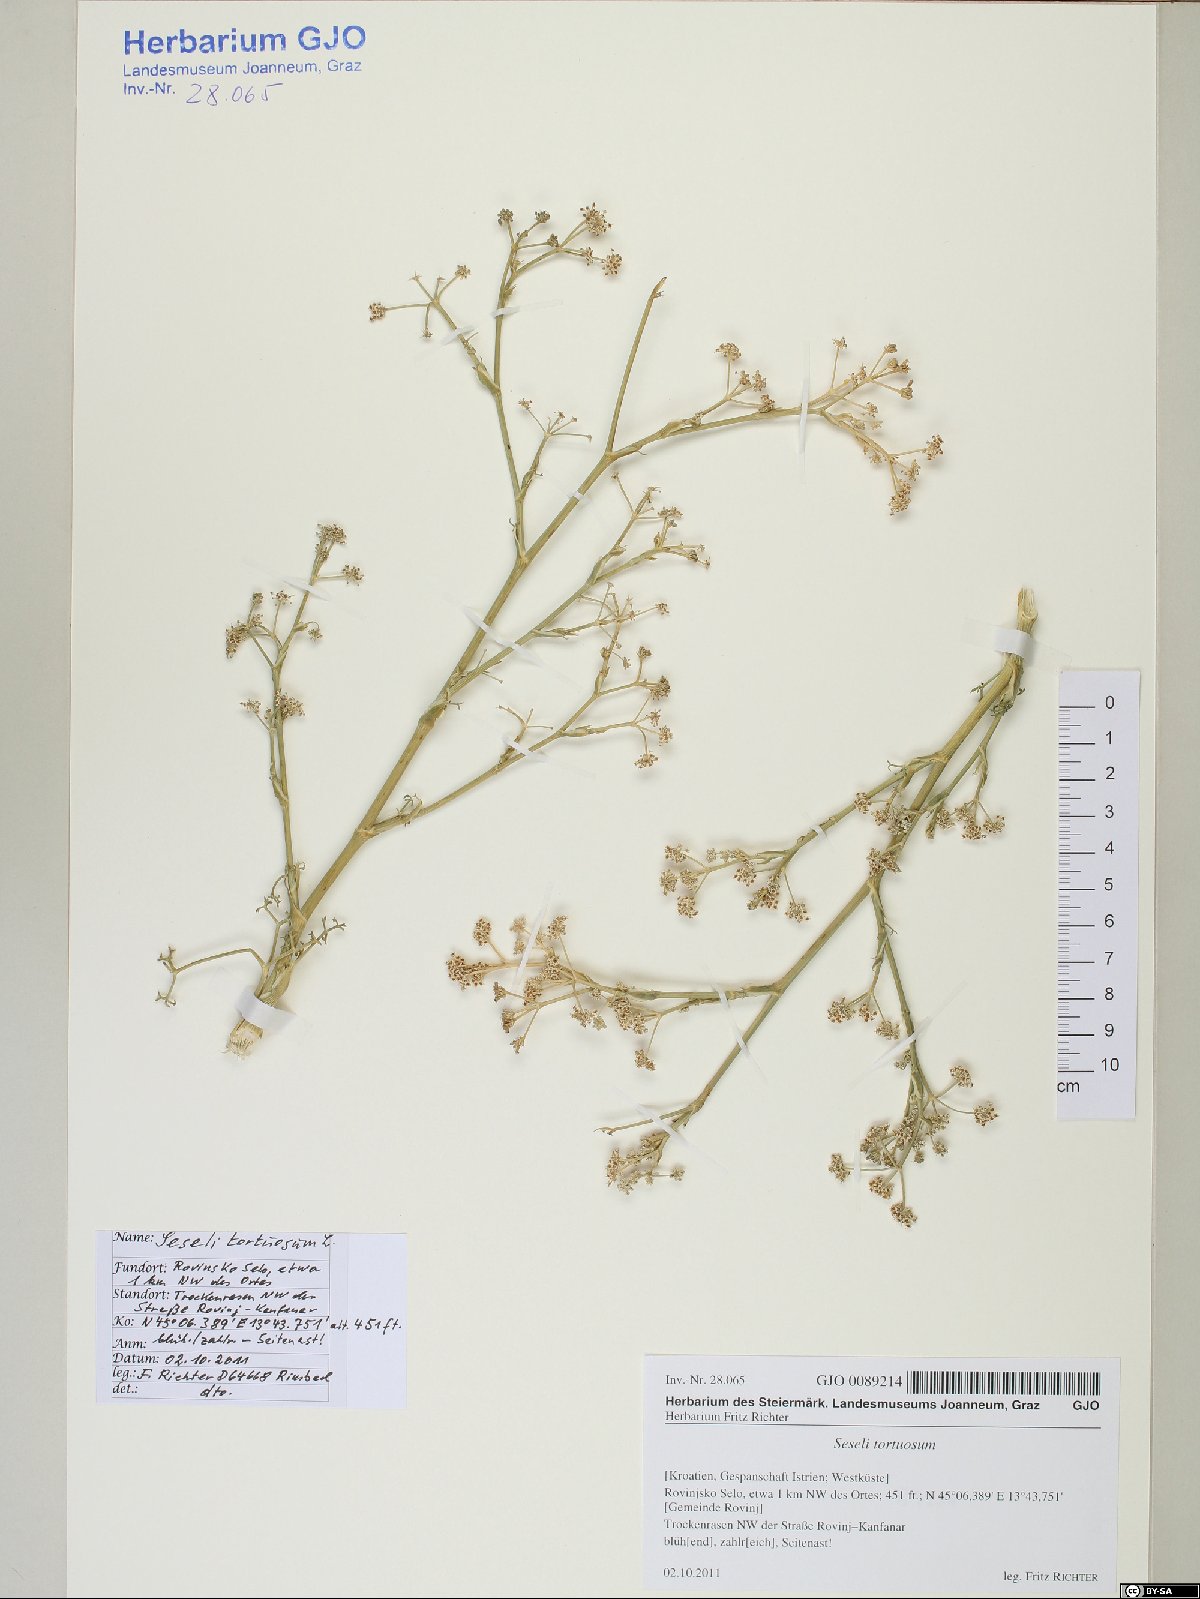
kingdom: Plantae
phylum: Tracheophyta
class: Magnoliopsida
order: Apiales
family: Apiaceae
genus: Seseli
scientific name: Seseli tortuosum
